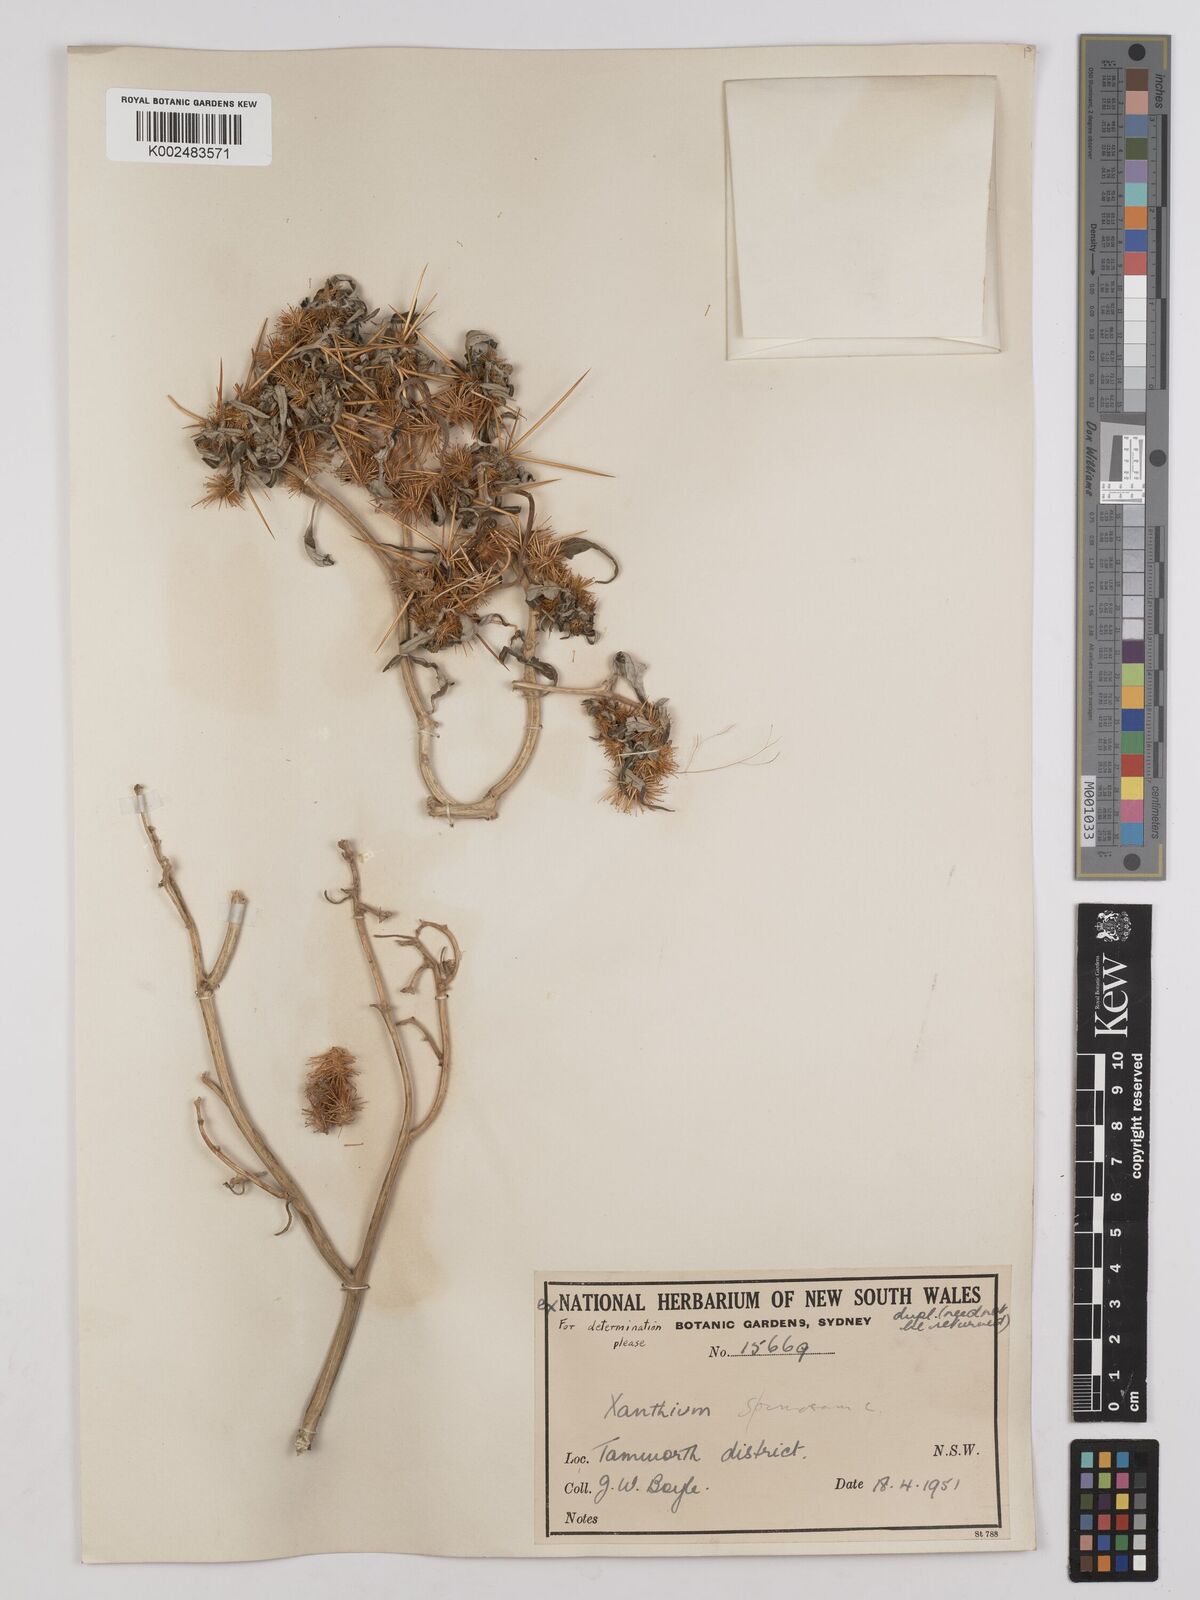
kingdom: Plantae
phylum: Tracheophyta
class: Magnoliopsida
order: Asterales
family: Asteraceae
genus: Xanthium
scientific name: Xanthium spinosum
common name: Spiny cocklebur
